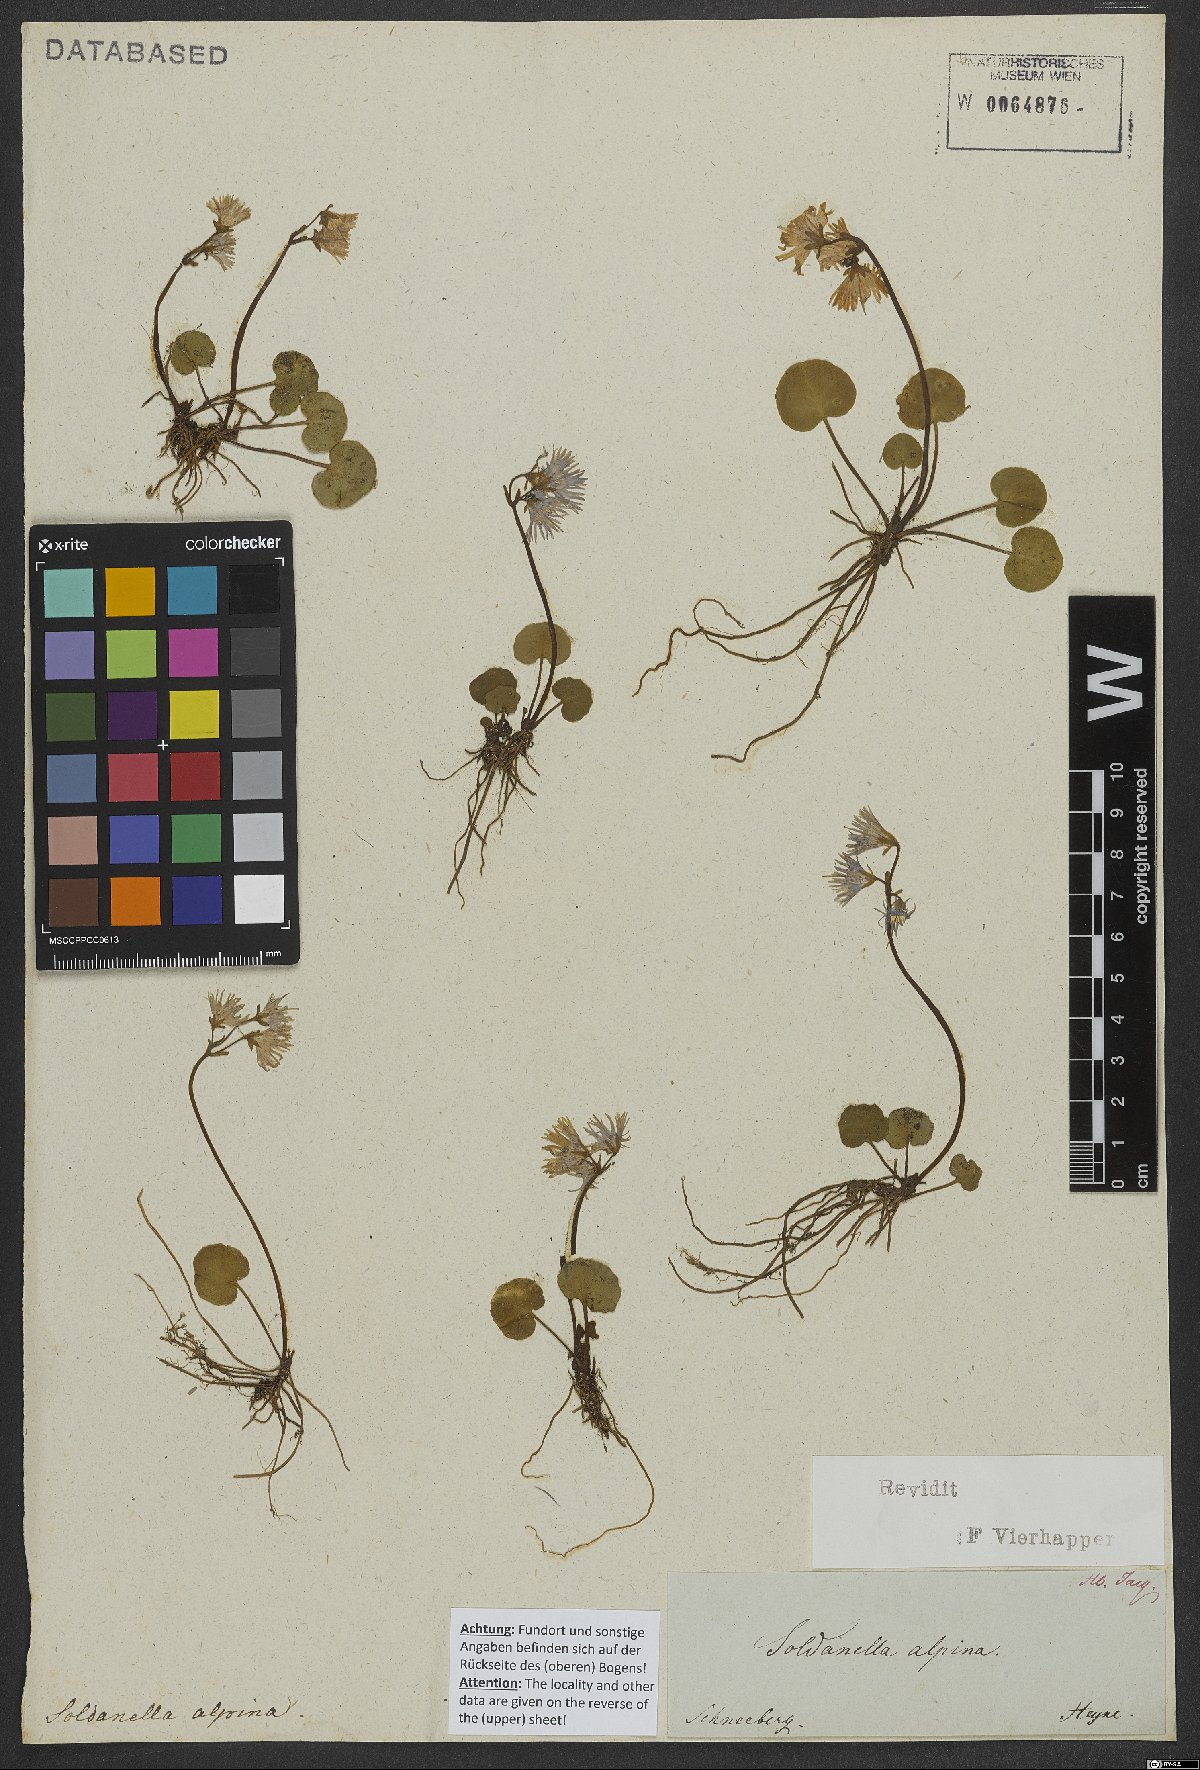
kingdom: Plantae
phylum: Tracheophyta
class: Magnoliopsida
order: Ericales
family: Primulaceae
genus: Soldanella
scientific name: Soldanella alpina
